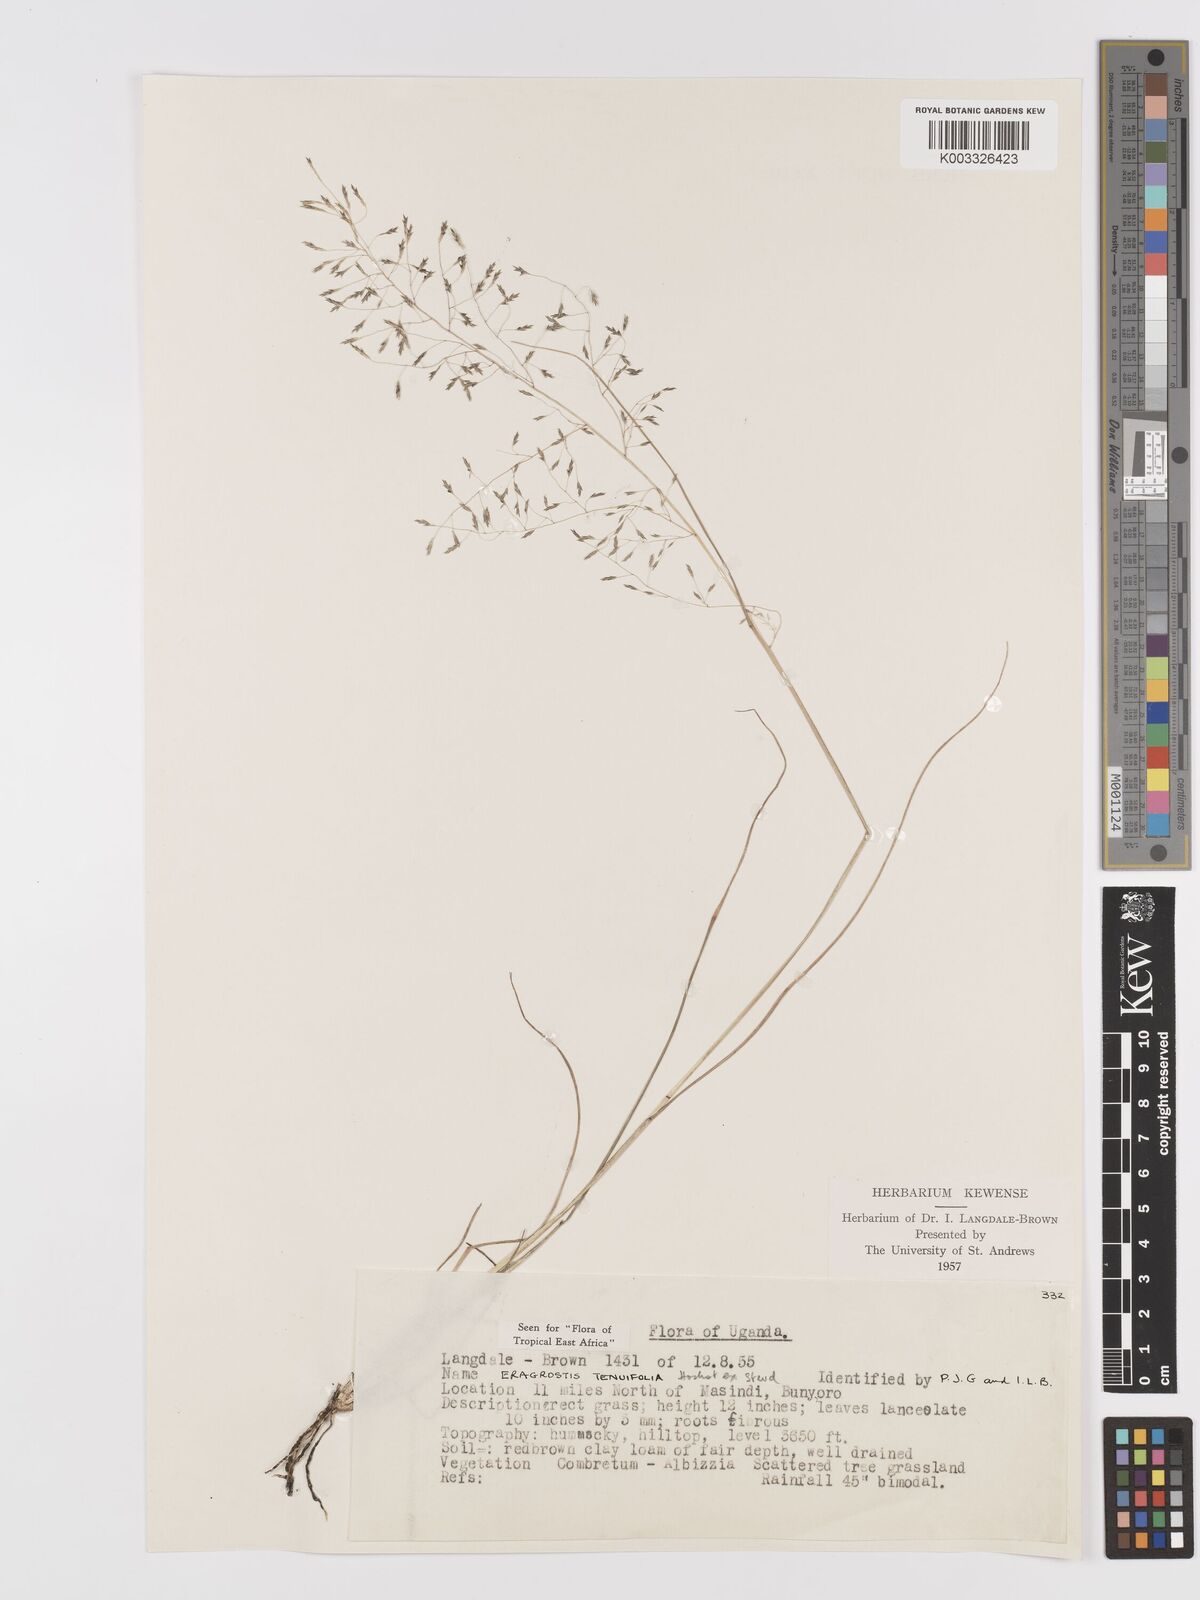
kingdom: Plantae
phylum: Tracheophyta
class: Liliopsida
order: Poales
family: Poaceae
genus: Eragrostis
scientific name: Eragrostis tenuifolia
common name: Elastic grass
